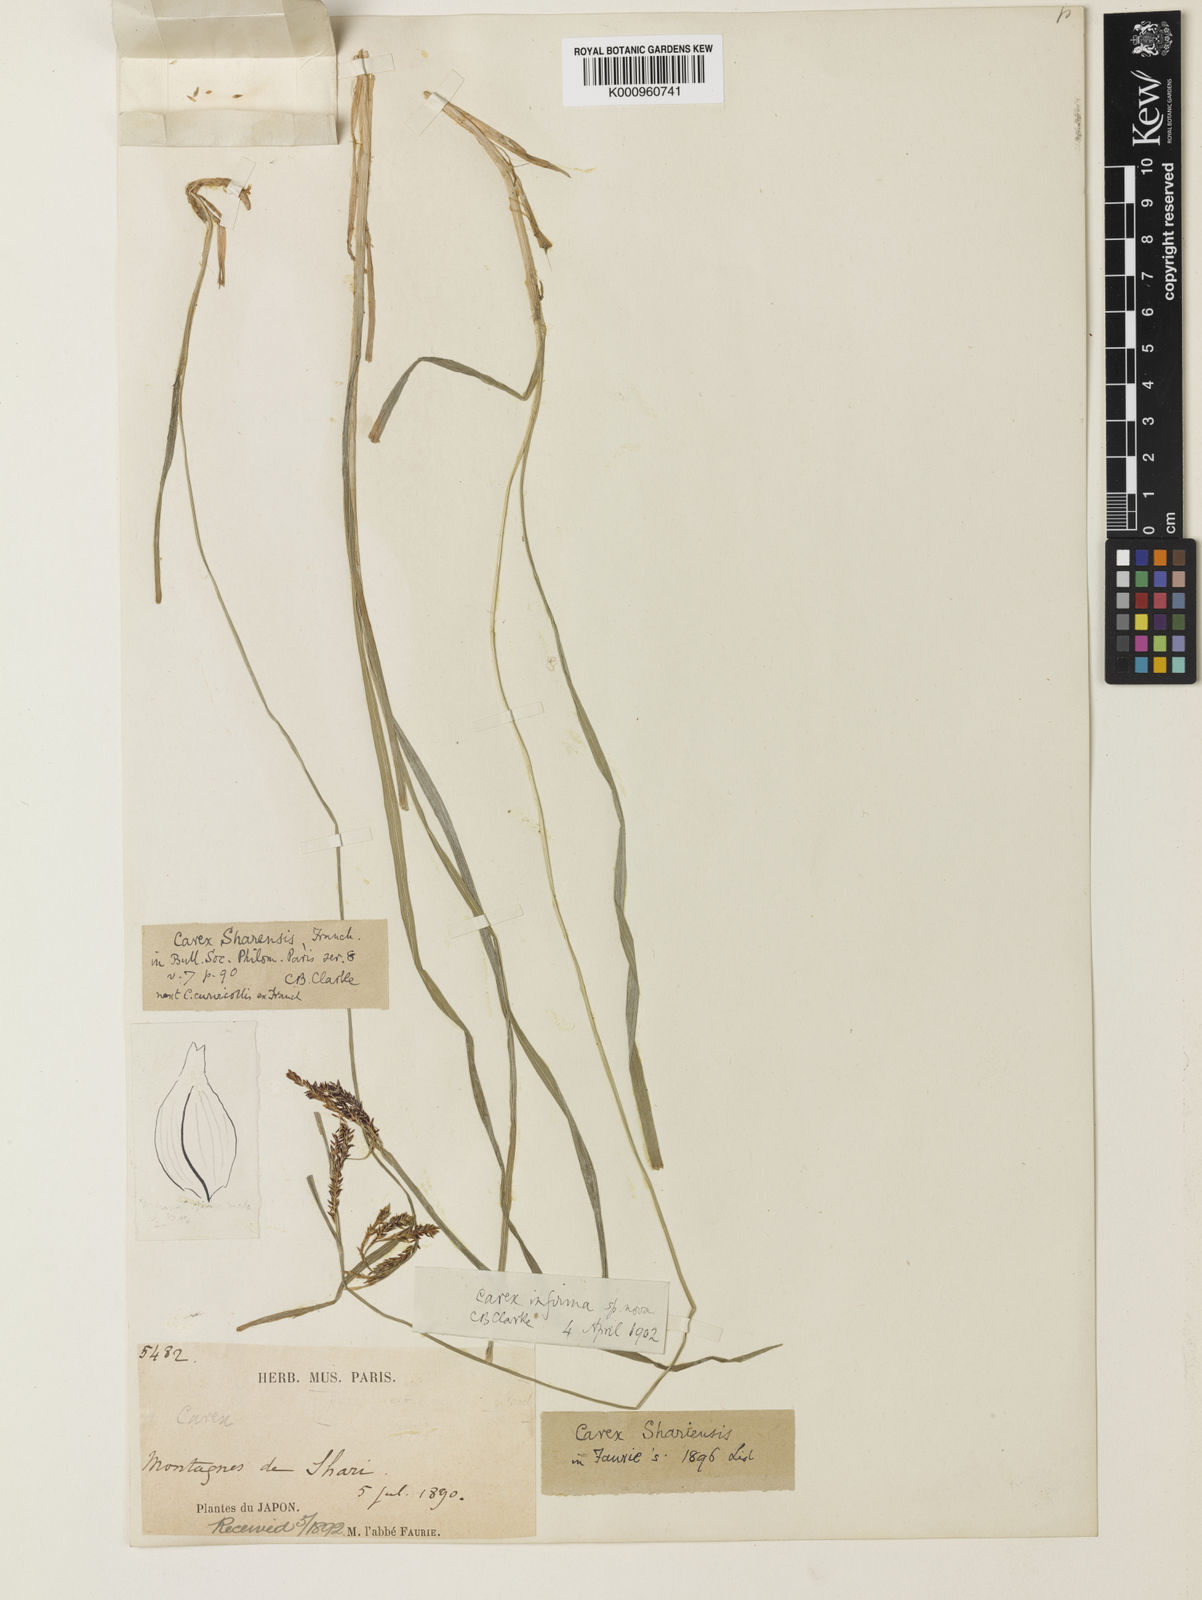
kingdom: Plantae
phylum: Tracheophyta
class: Liliopsida
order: Poales
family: Cyperaceae
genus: Carex
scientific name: Carex augustinowiczii
